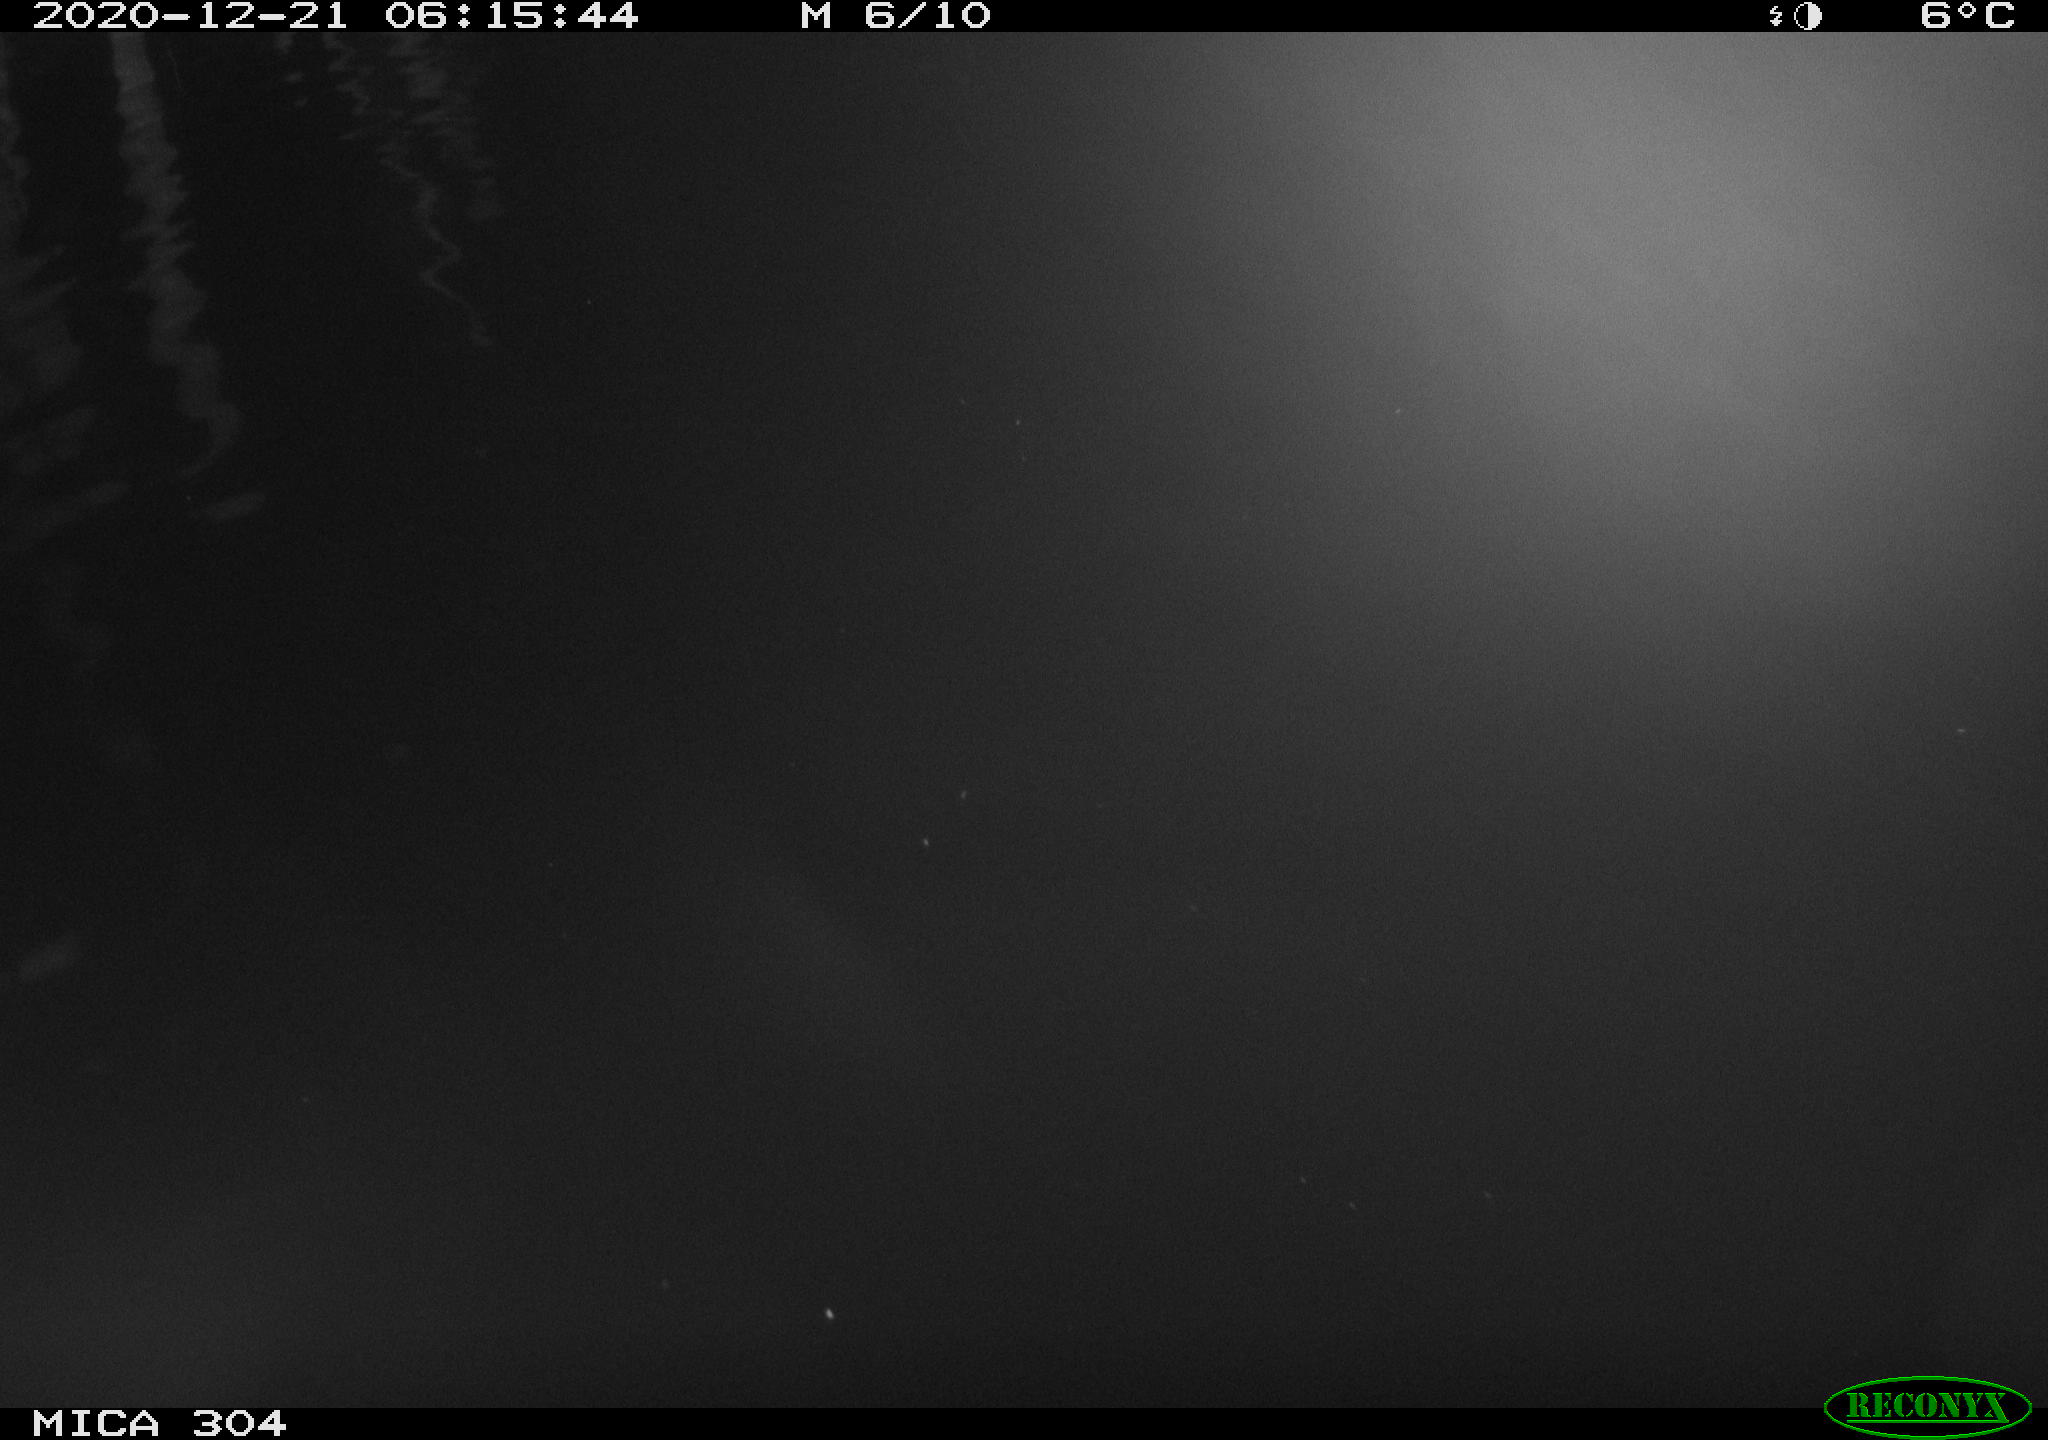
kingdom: Animalia
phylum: Chordata
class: Aves
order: Anseriformes
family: Anatidae
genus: Anas
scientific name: Anas platyrhynchos
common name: Mallard
